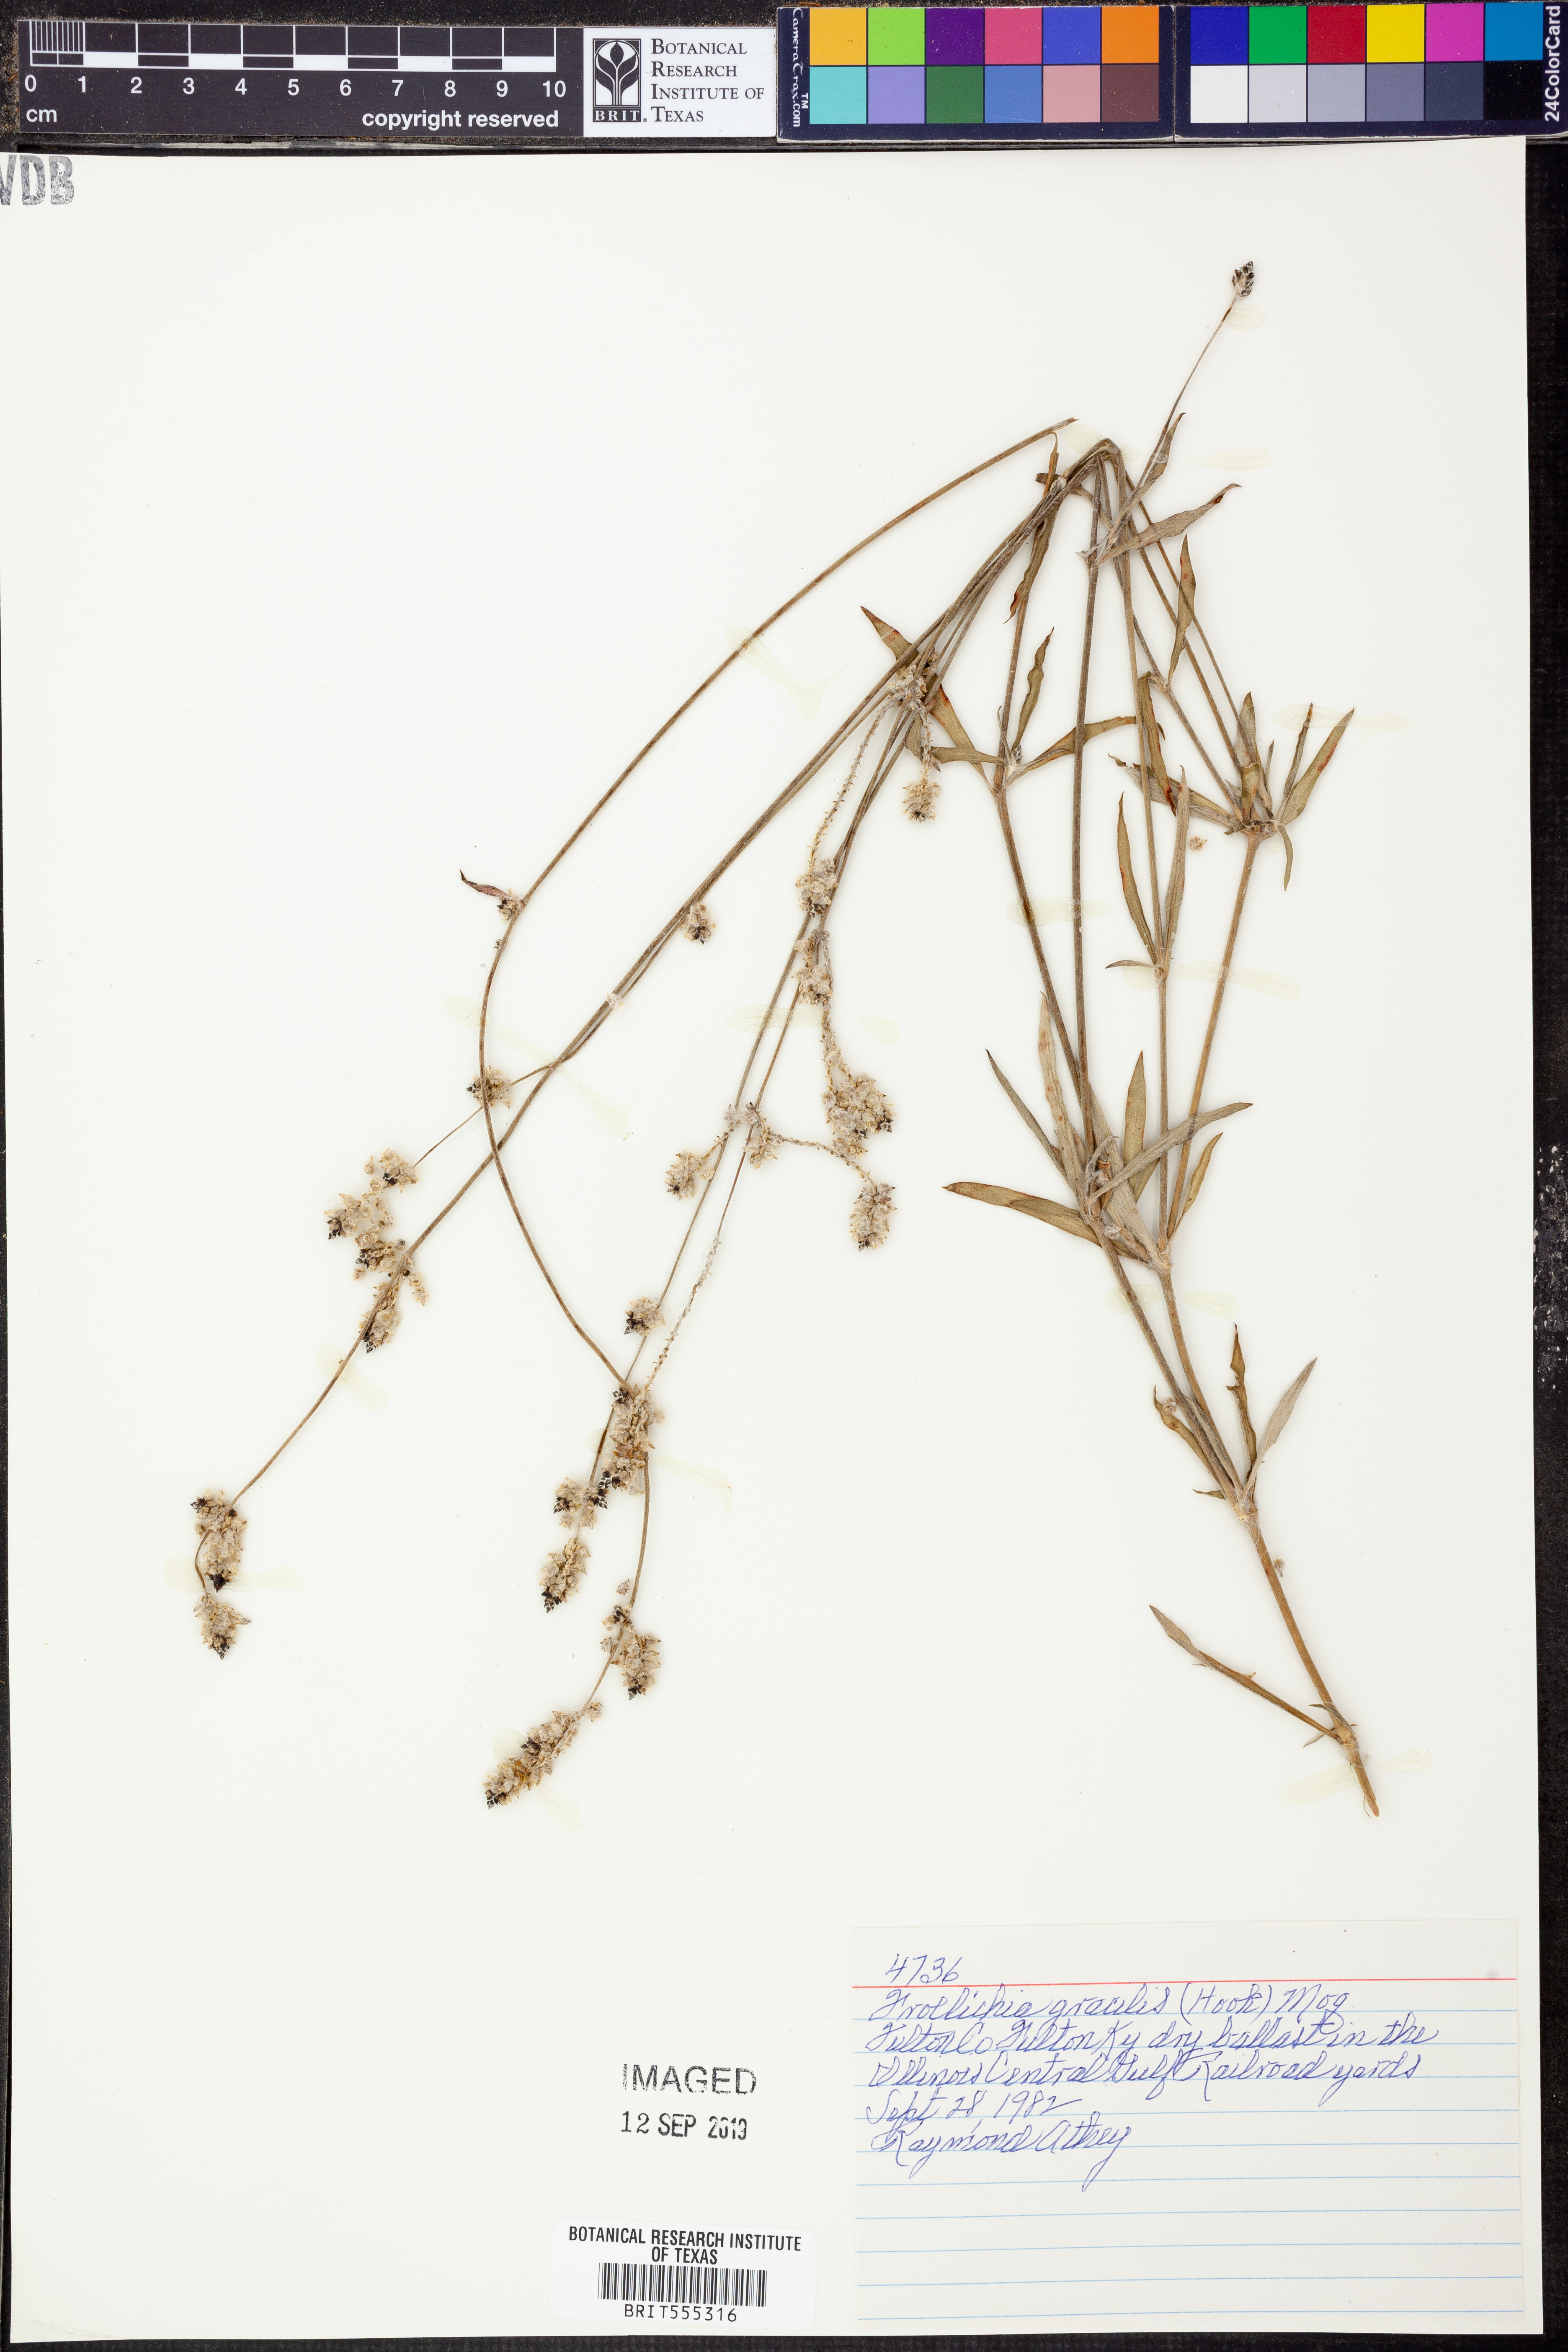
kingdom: Plantae
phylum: Tracheophyta
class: Magnoliopsida
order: Caryophyllales
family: Amaranthaceae
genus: Froelichia
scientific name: Froelichia gracilis
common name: Slender cottonweed
